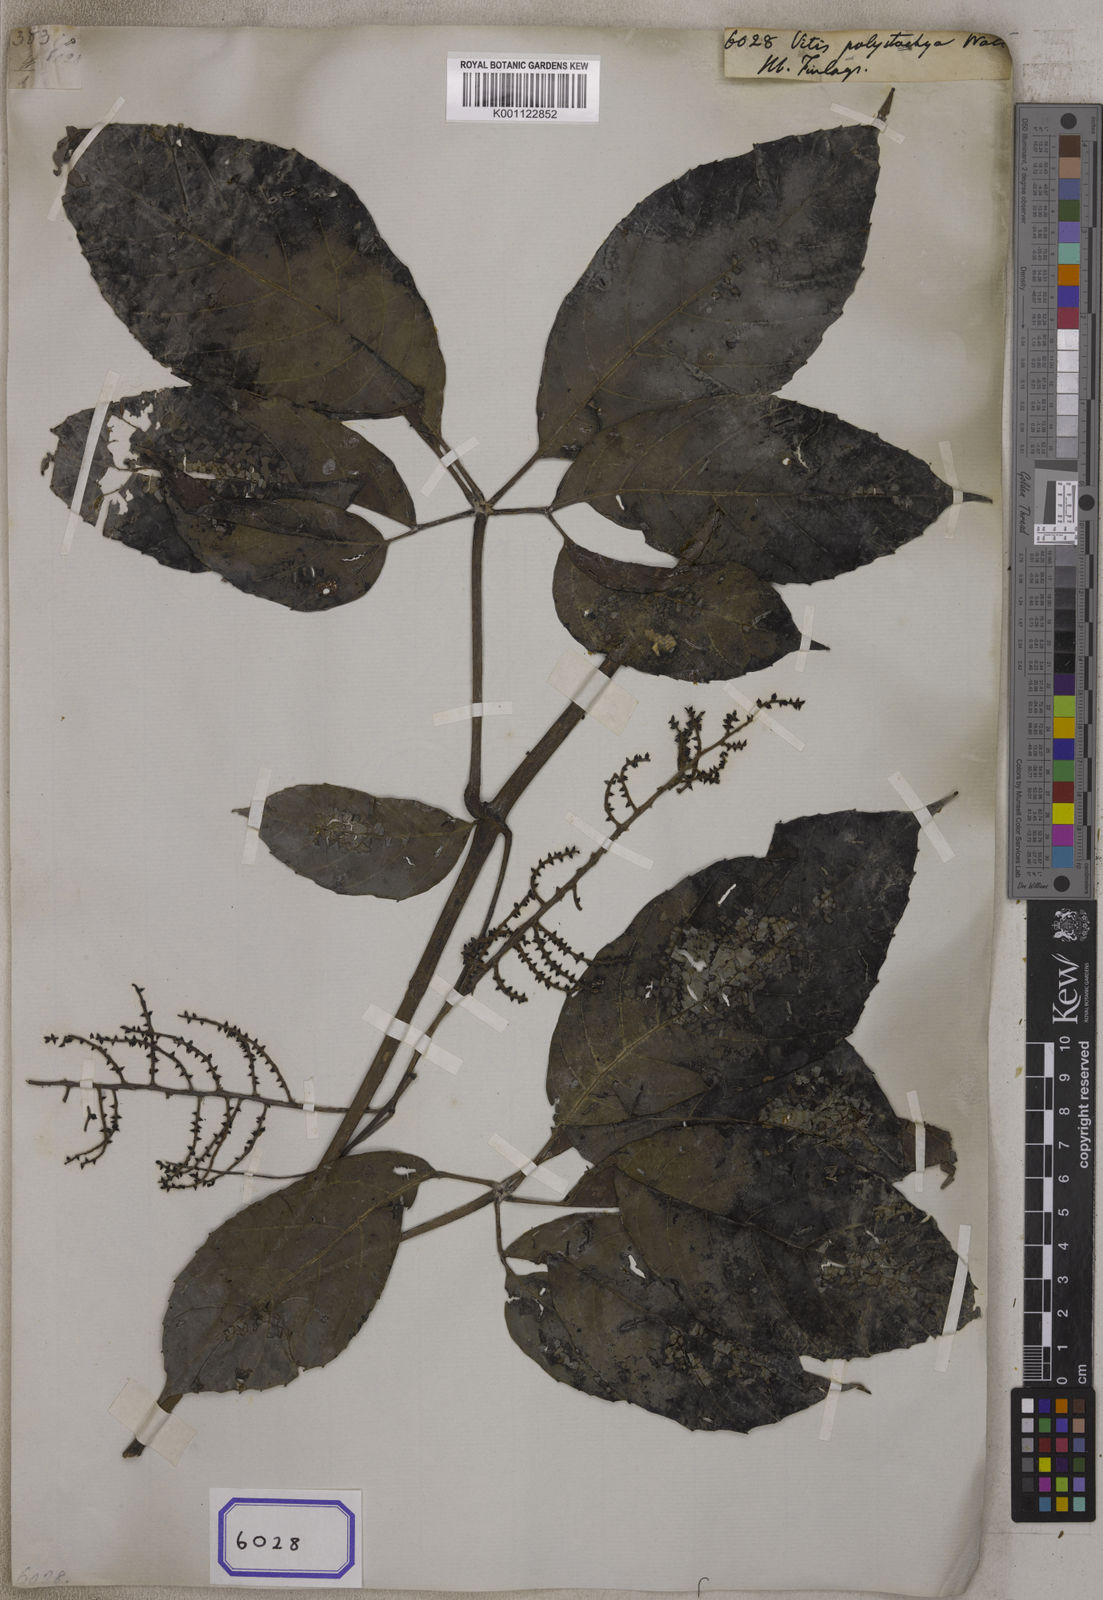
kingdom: Plantae
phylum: Tracheophyta
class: Magnoliopsida
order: Vitales
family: Vitaceae
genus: Vitis
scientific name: Vitis
